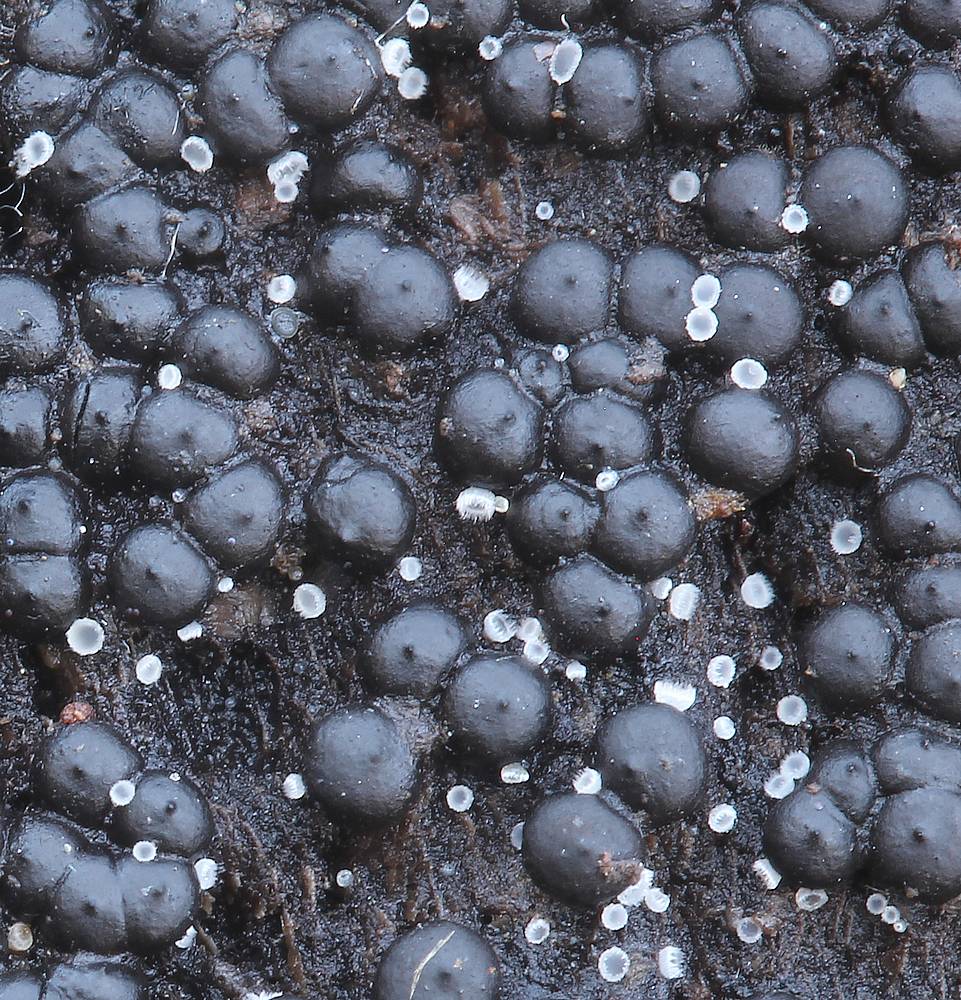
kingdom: Fungi
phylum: Ascomycota
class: Sordariomycetes
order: Xylariales
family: Xylariaceae
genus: Rosellinia
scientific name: Rosellinia corticium
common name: måtte-kulkaviar
